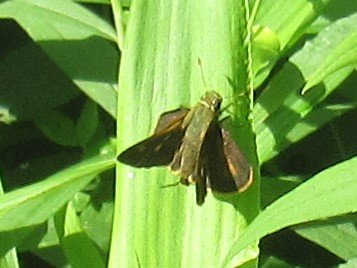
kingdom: Animalia
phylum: Arthropoda
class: Insecta
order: Lepidoptera
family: Hesperiidae
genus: Vernia
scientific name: Vernia verna
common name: Little Glassywing
